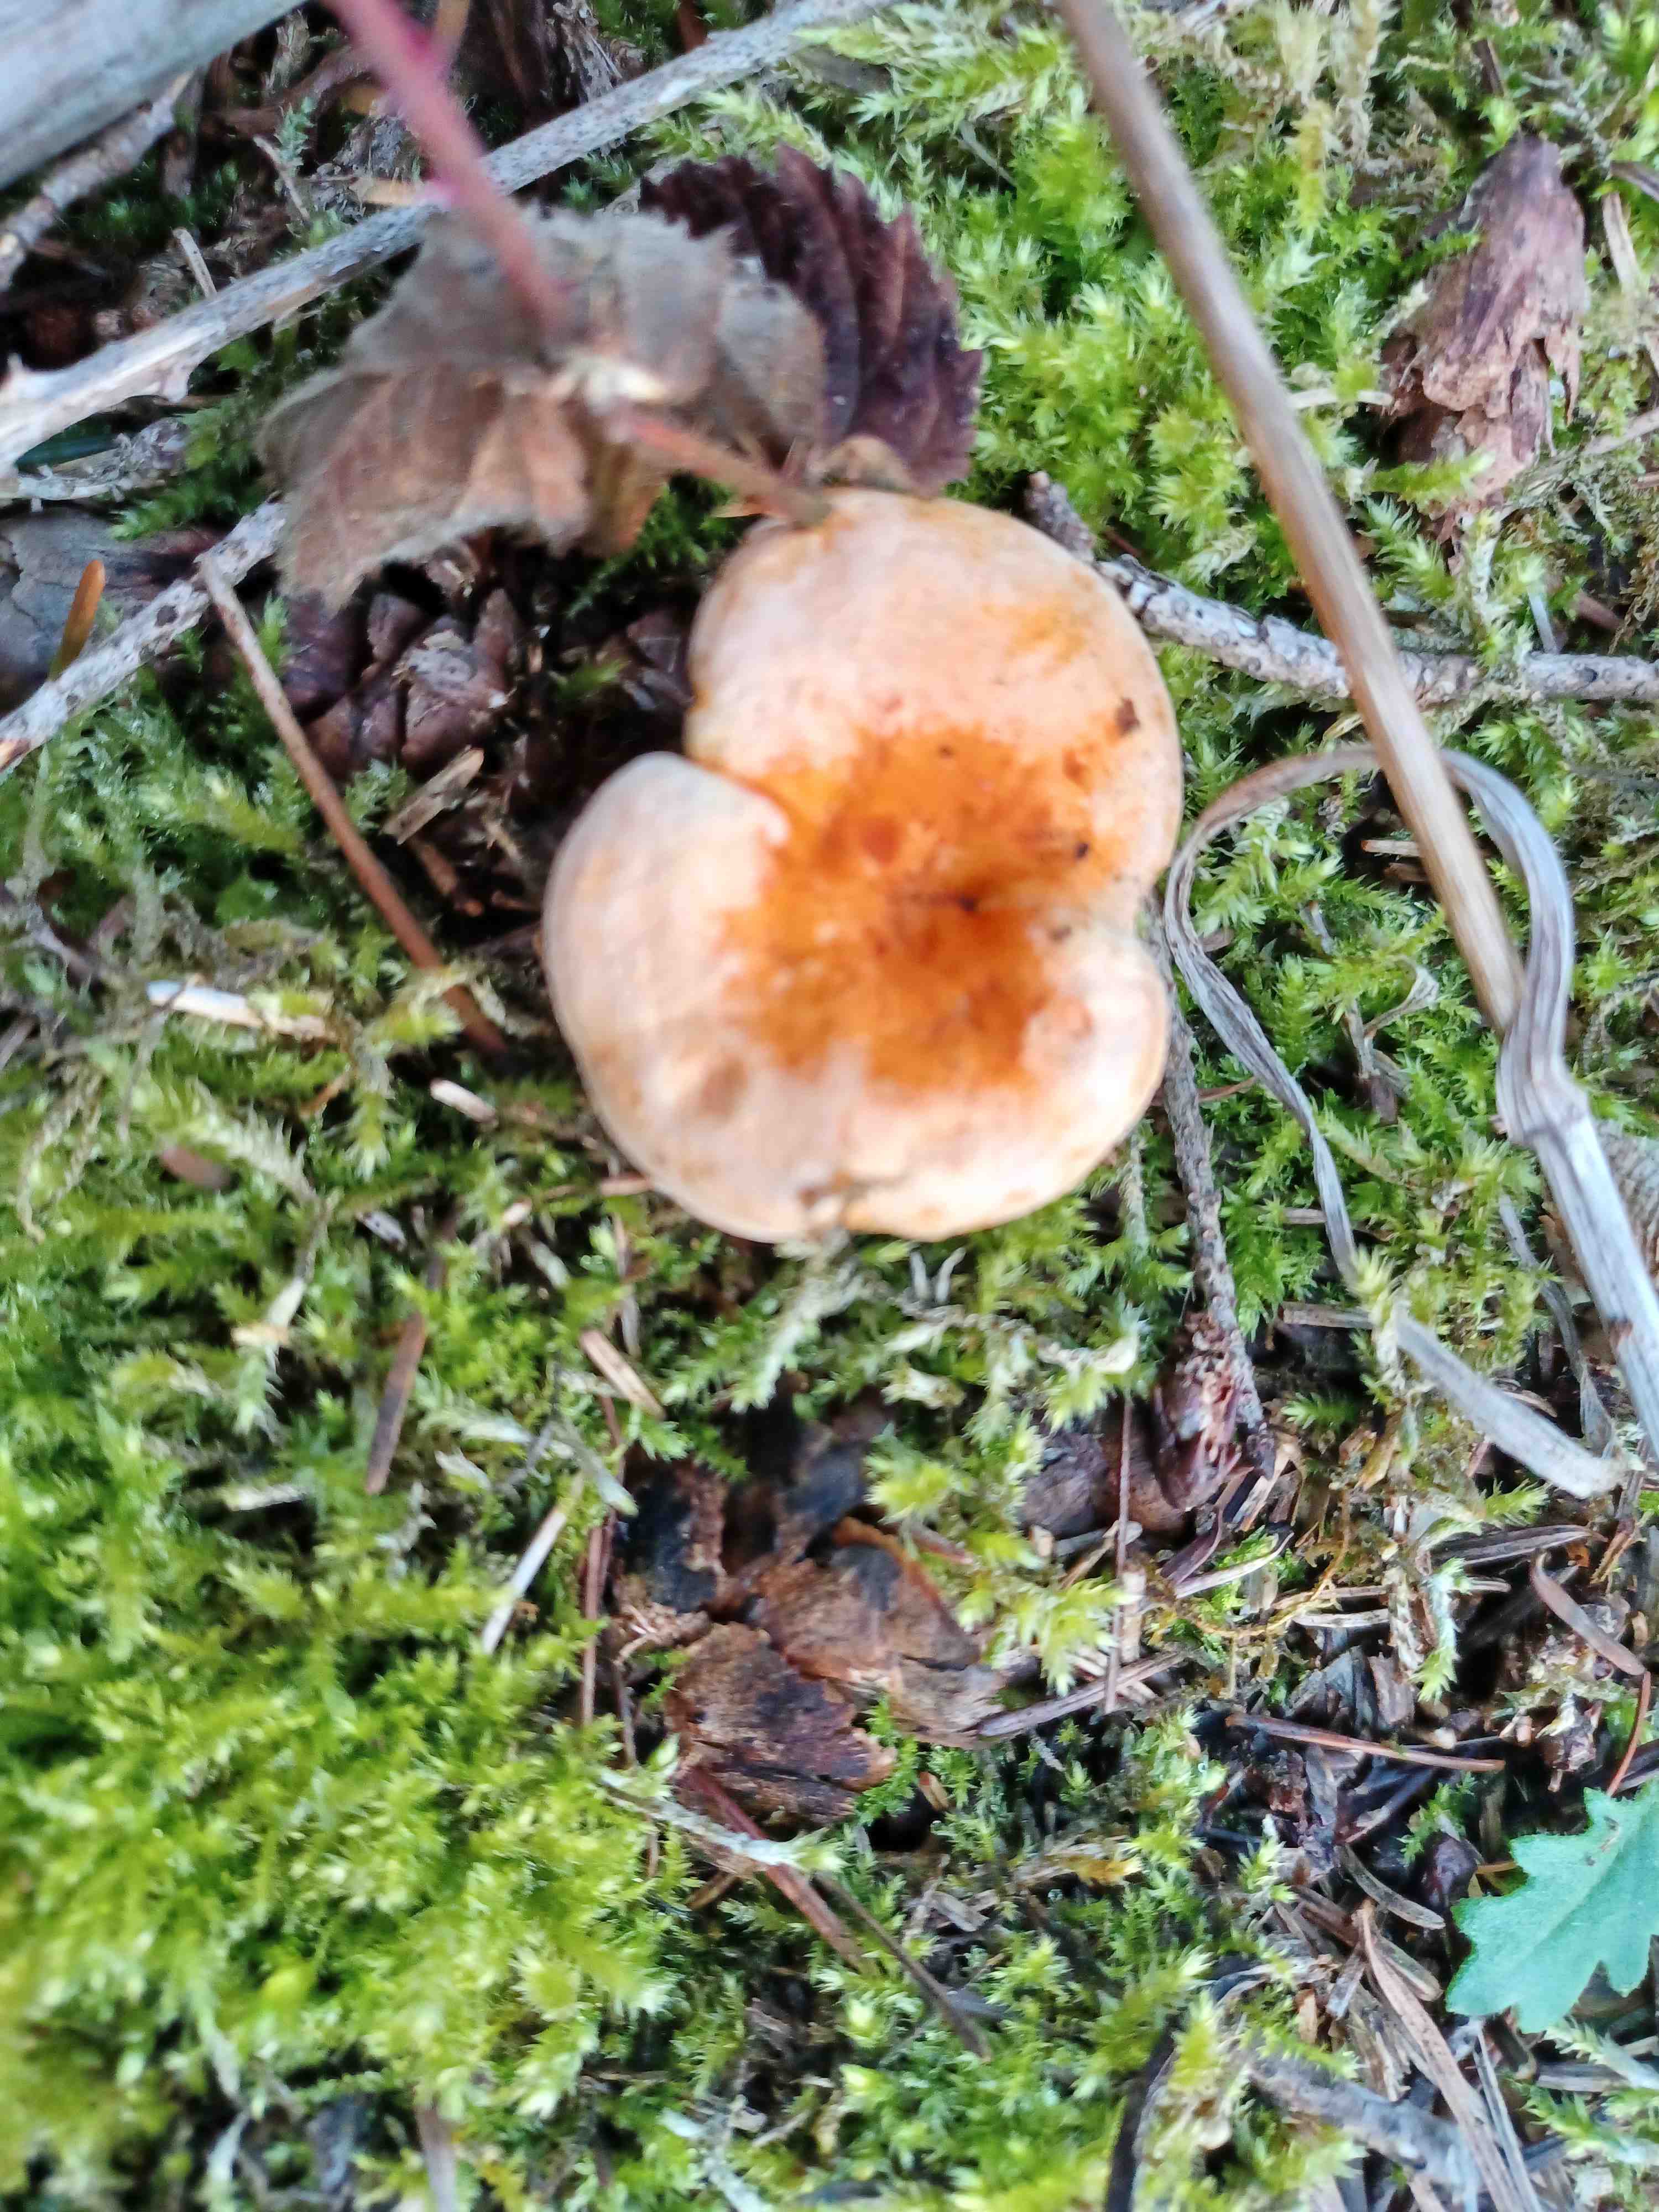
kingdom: Fungi
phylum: Basidiomycota
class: Agaricomycetes
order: Boletales
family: Hygrophoropsidaceae
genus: Hygrophoropsis
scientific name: Hygrophoropsis aurantiaca
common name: almindelig orangekantarel
